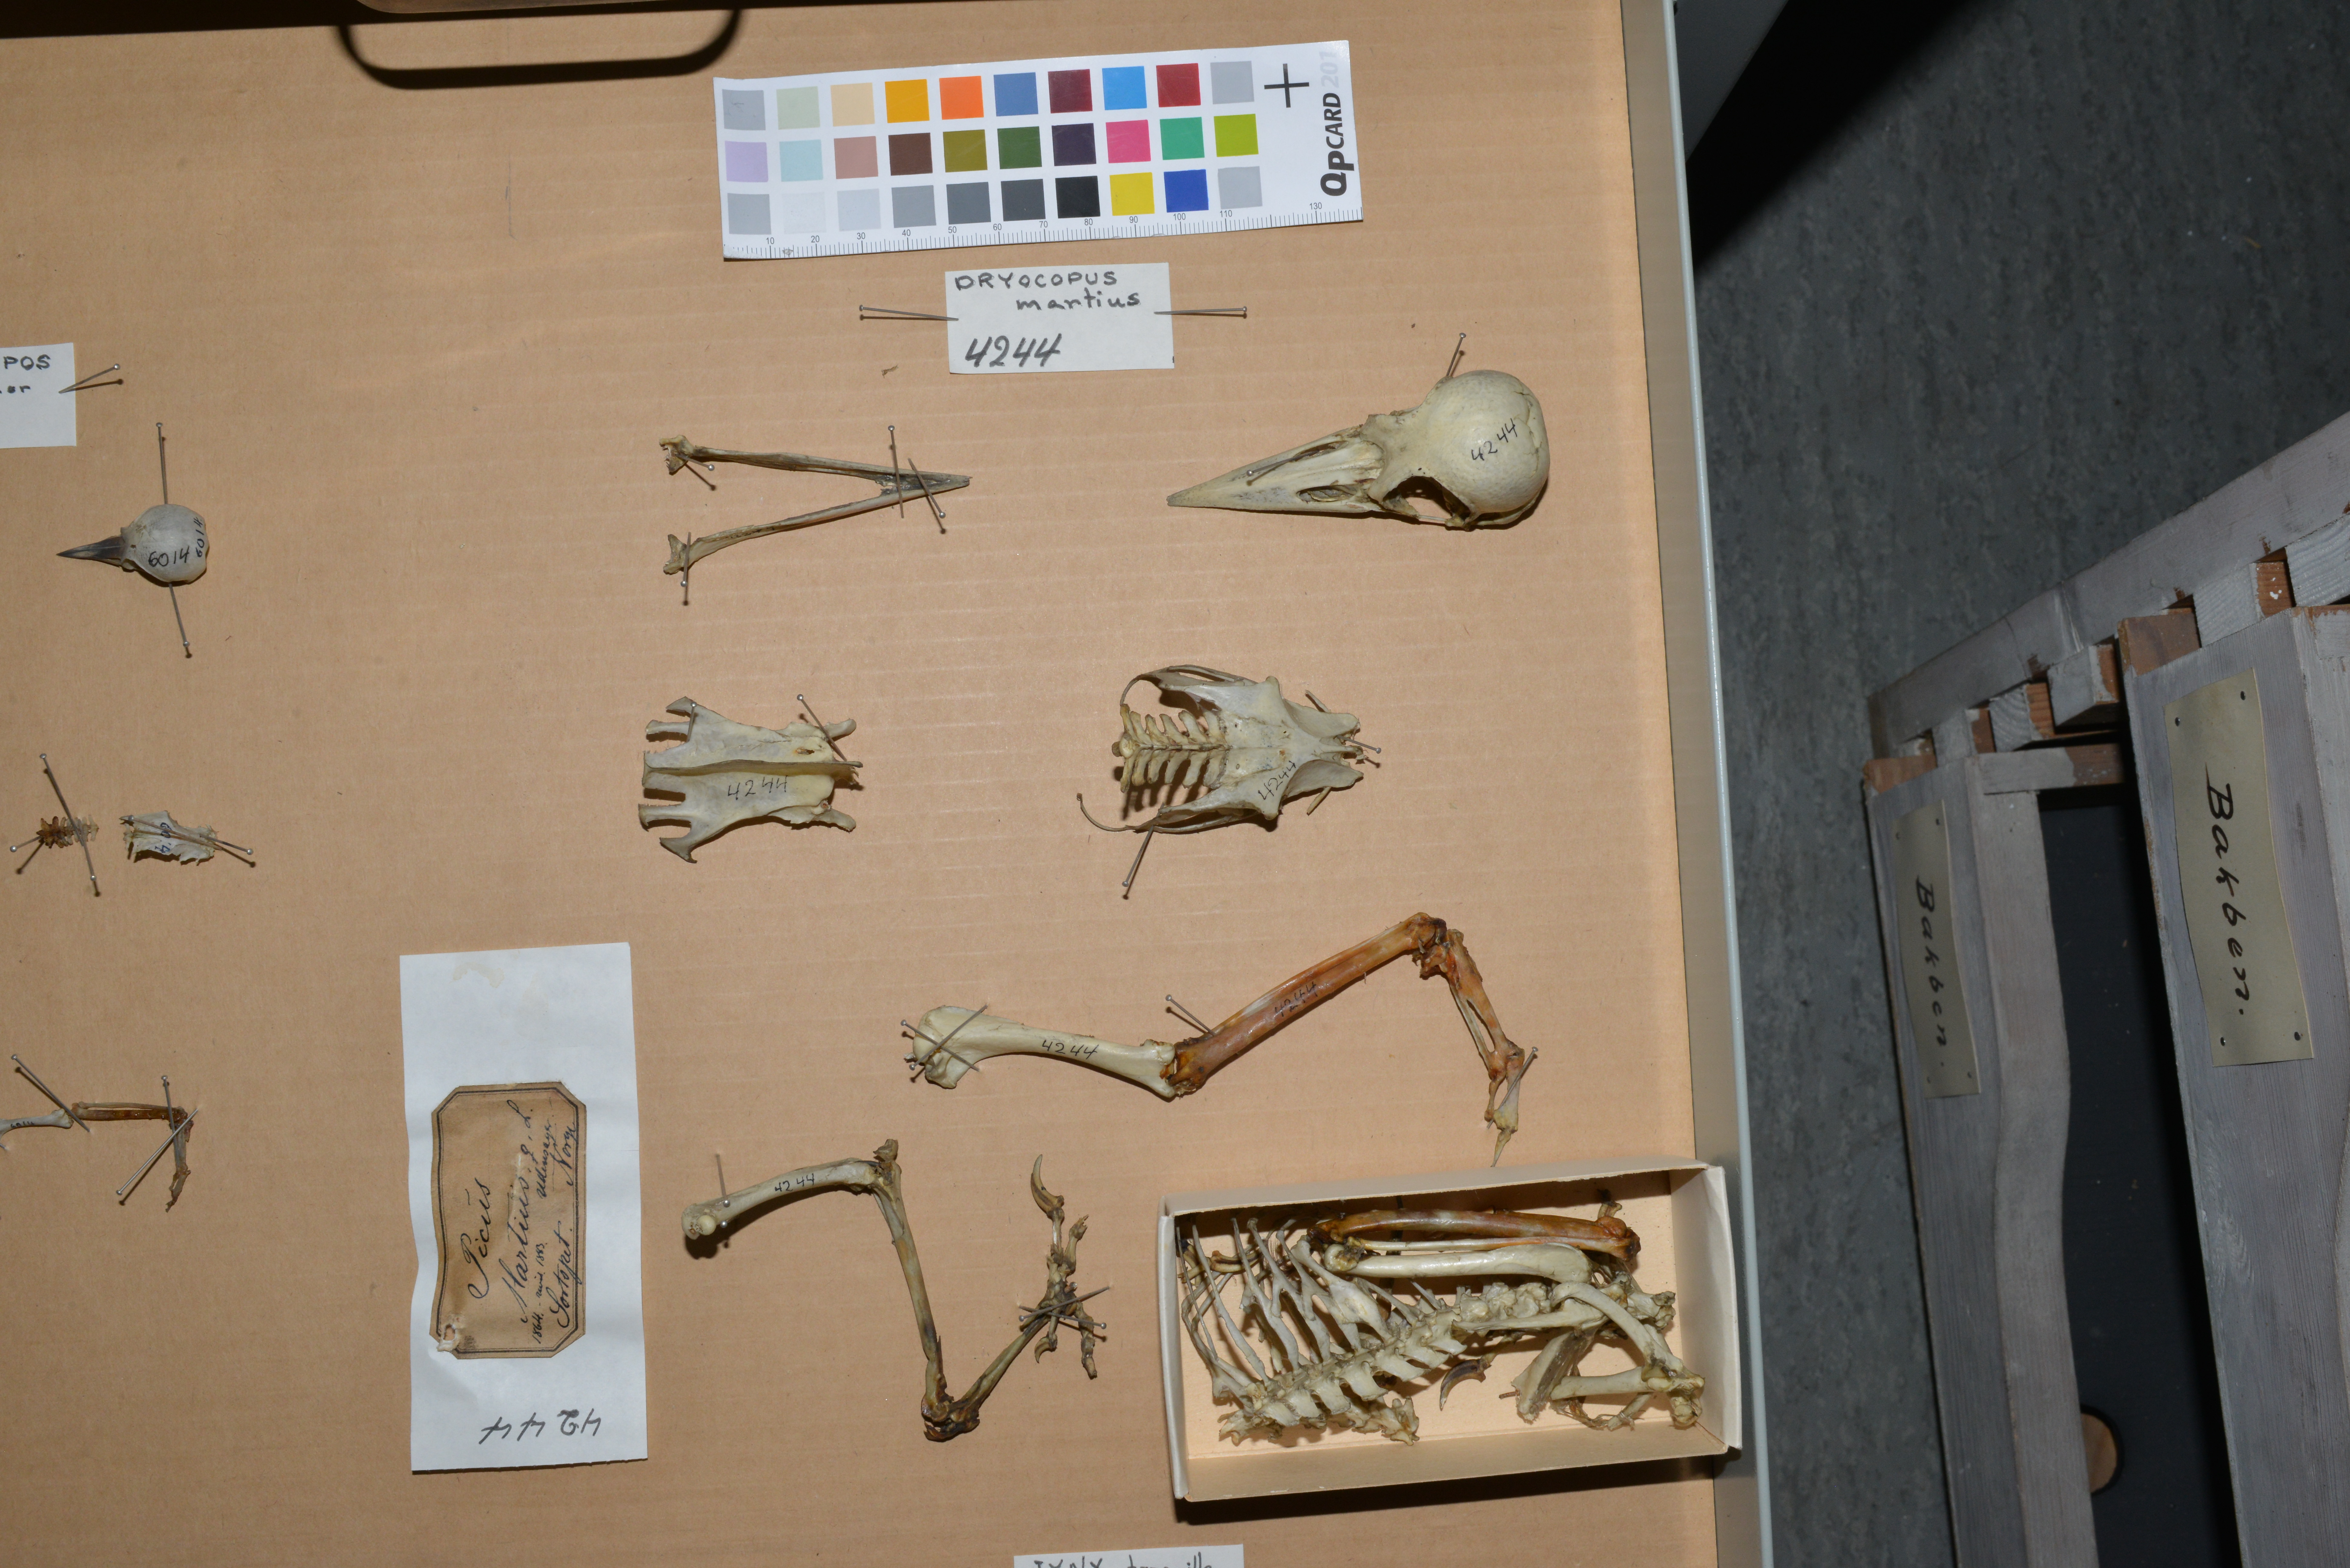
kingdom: Animalia
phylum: Chordata
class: Aves
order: Piciformes
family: Picidae
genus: Dryocopus
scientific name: Dryocopus martius
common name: Black woodpecker
